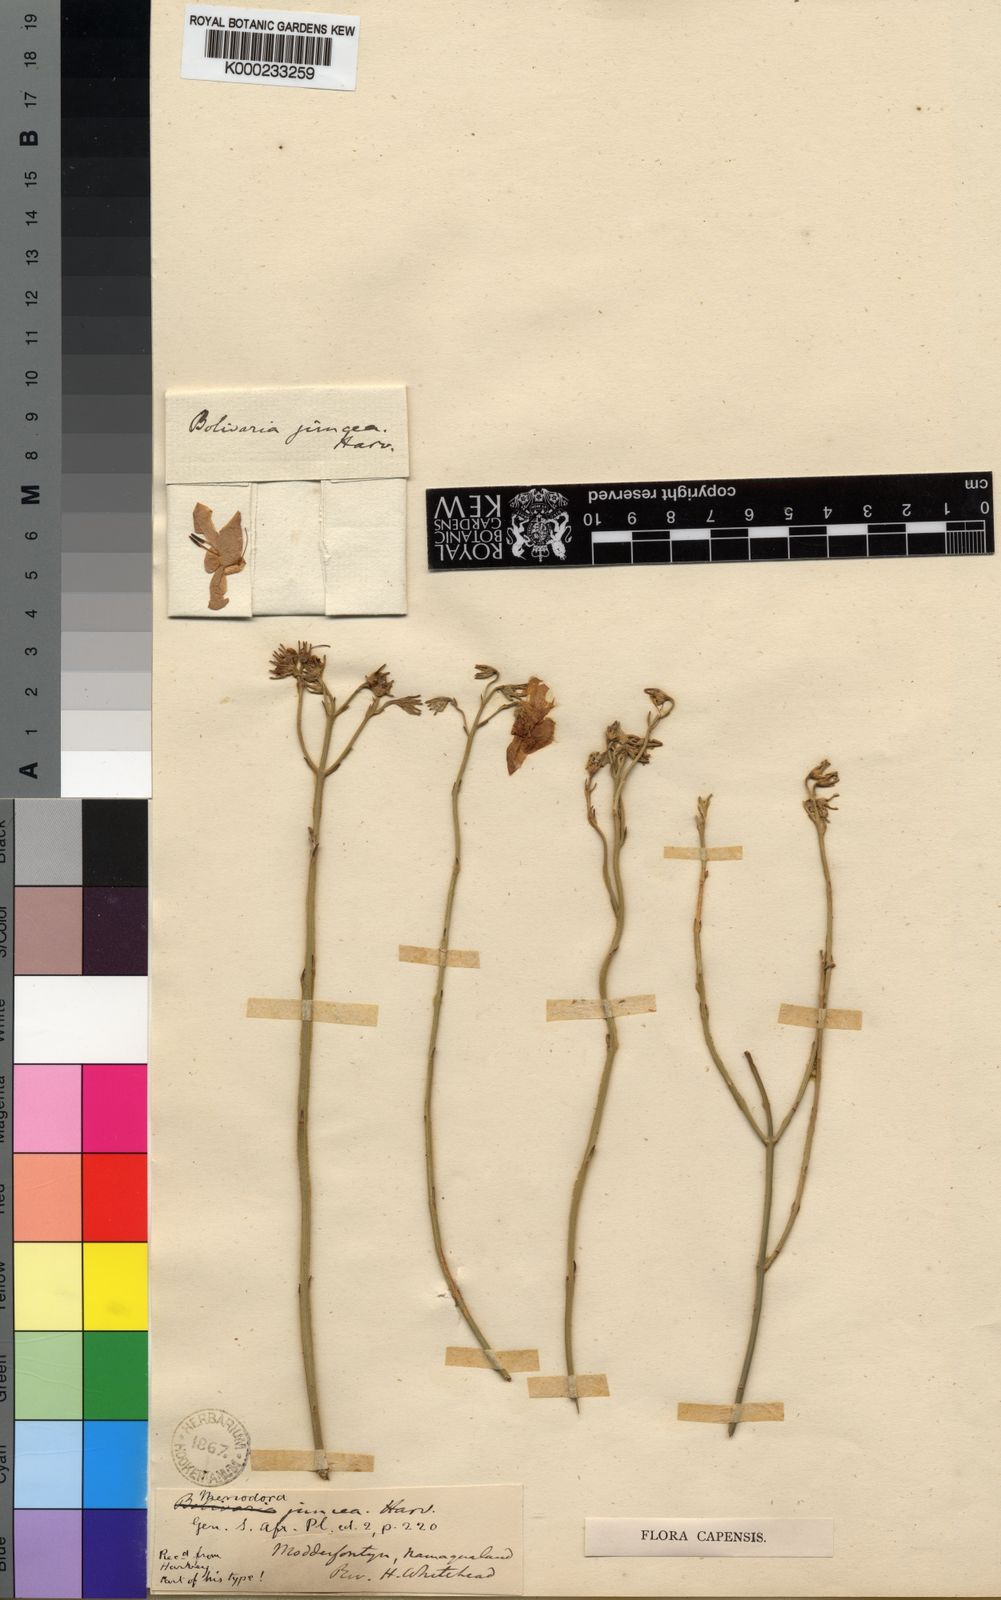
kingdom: Plantae
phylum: Tracheophyta
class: Magnoliopsida
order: Lamiales
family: Oleaceae
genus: Menodora
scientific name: Menodora juncea
